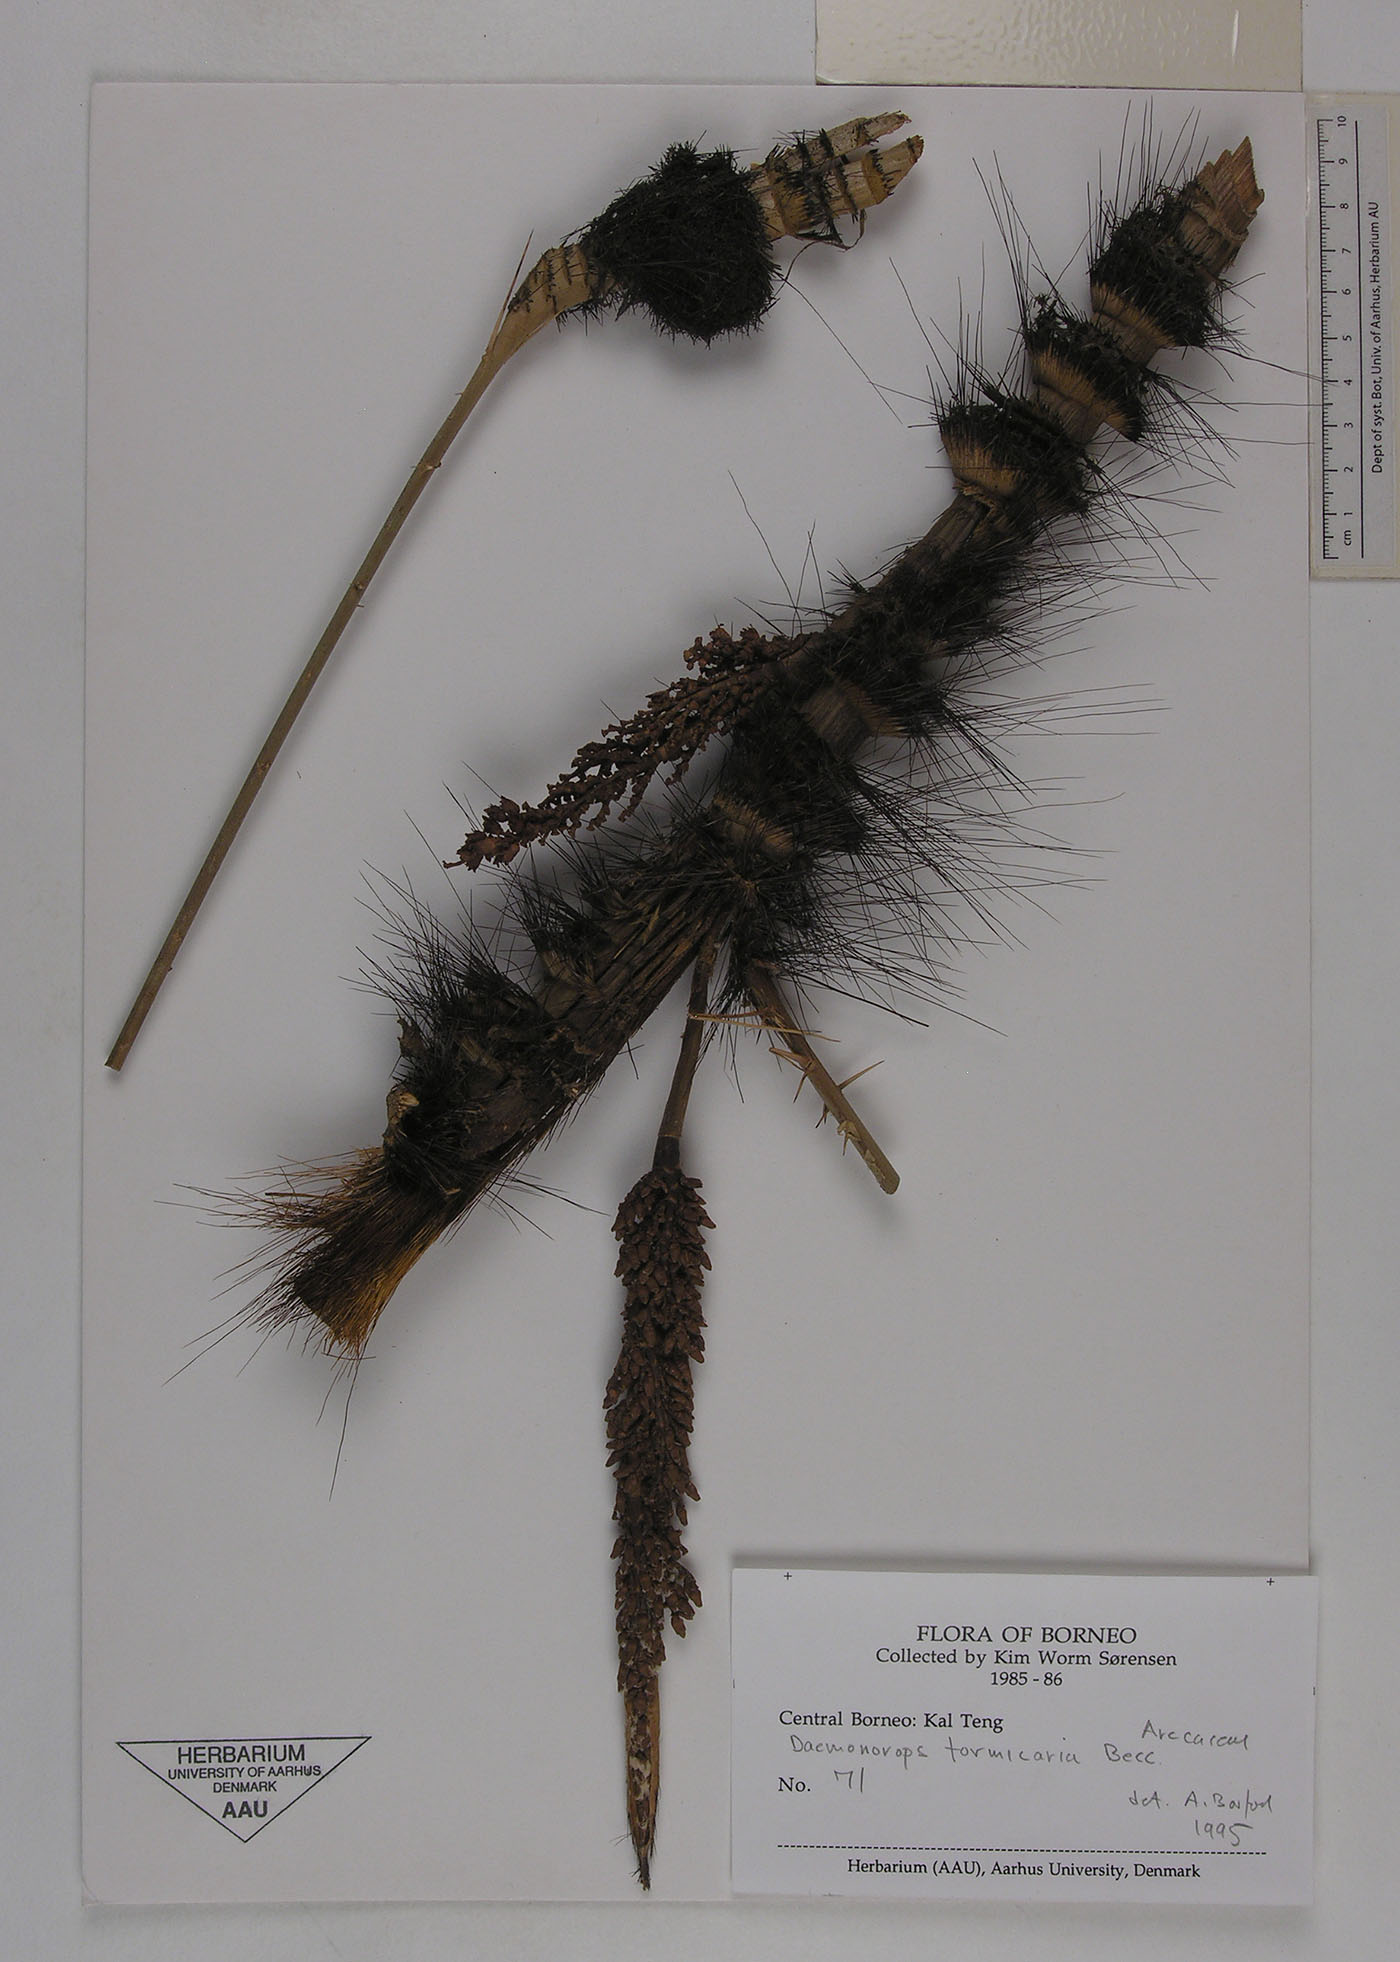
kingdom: Plantae
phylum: Tracheophyta
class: Liliopsida
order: Arecales
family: Arecaceae
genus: Calamus
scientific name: Calamus formicarius
